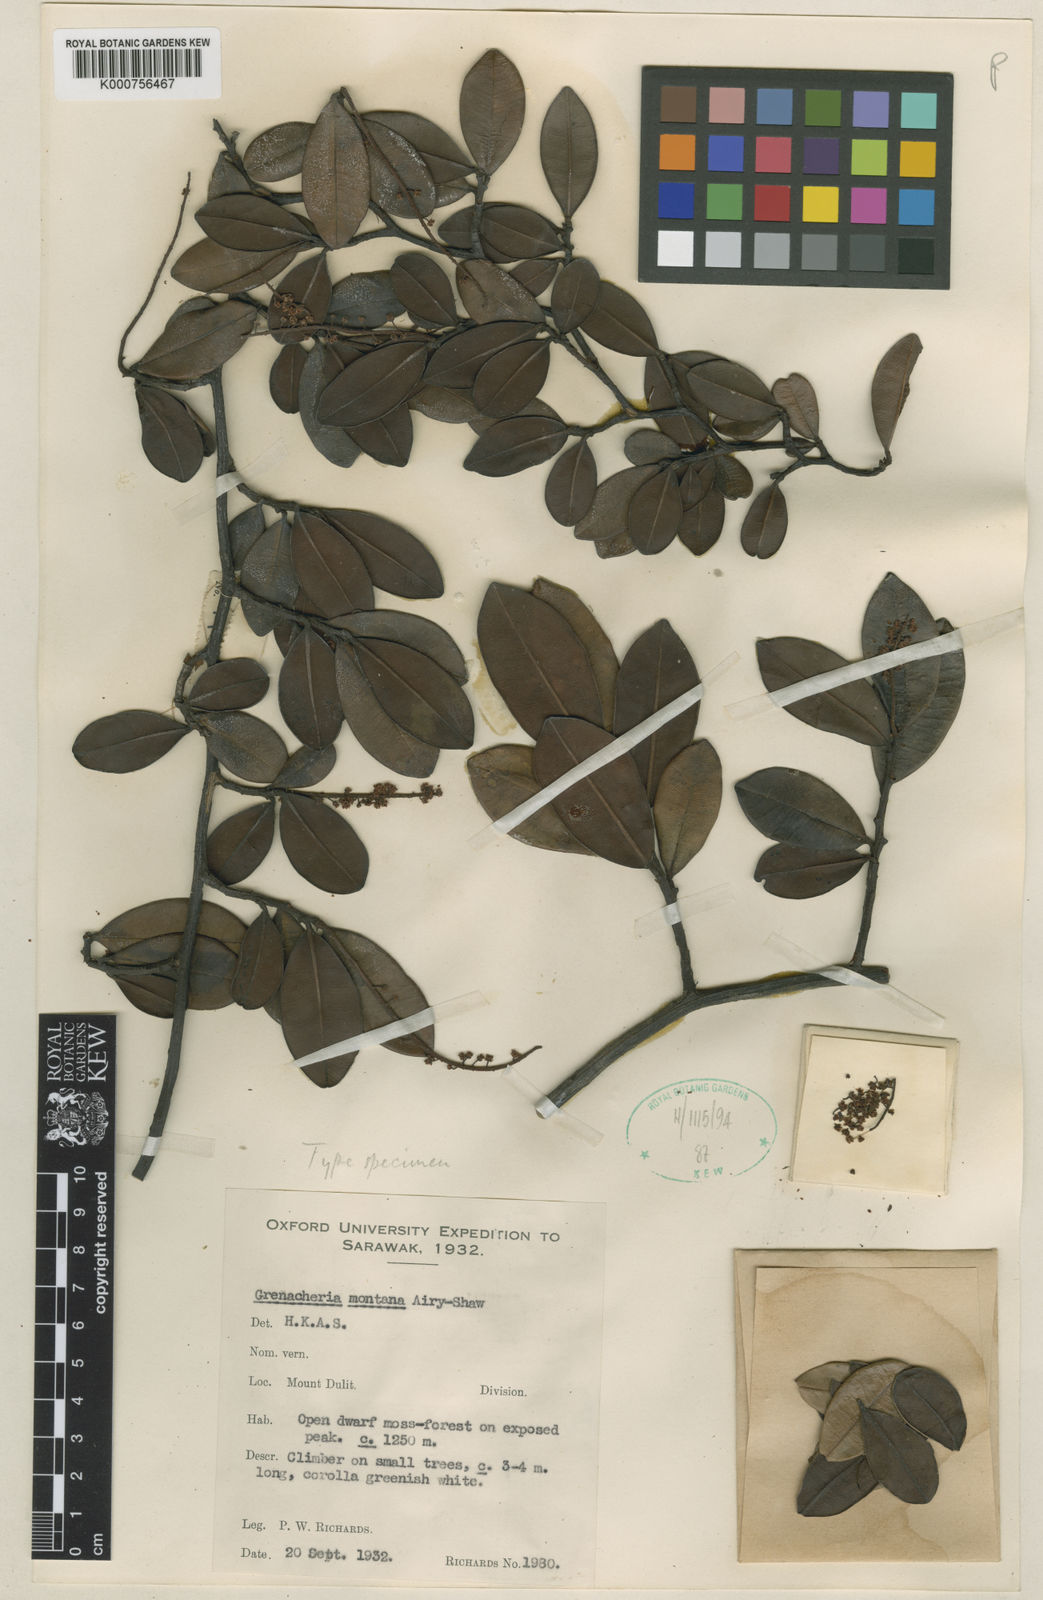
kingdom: Plantae
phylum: Tracheophyta
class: Magnoliopsida
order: Ericales
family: Primulaceae
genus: Embelia
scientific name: Embelia tortuosa
